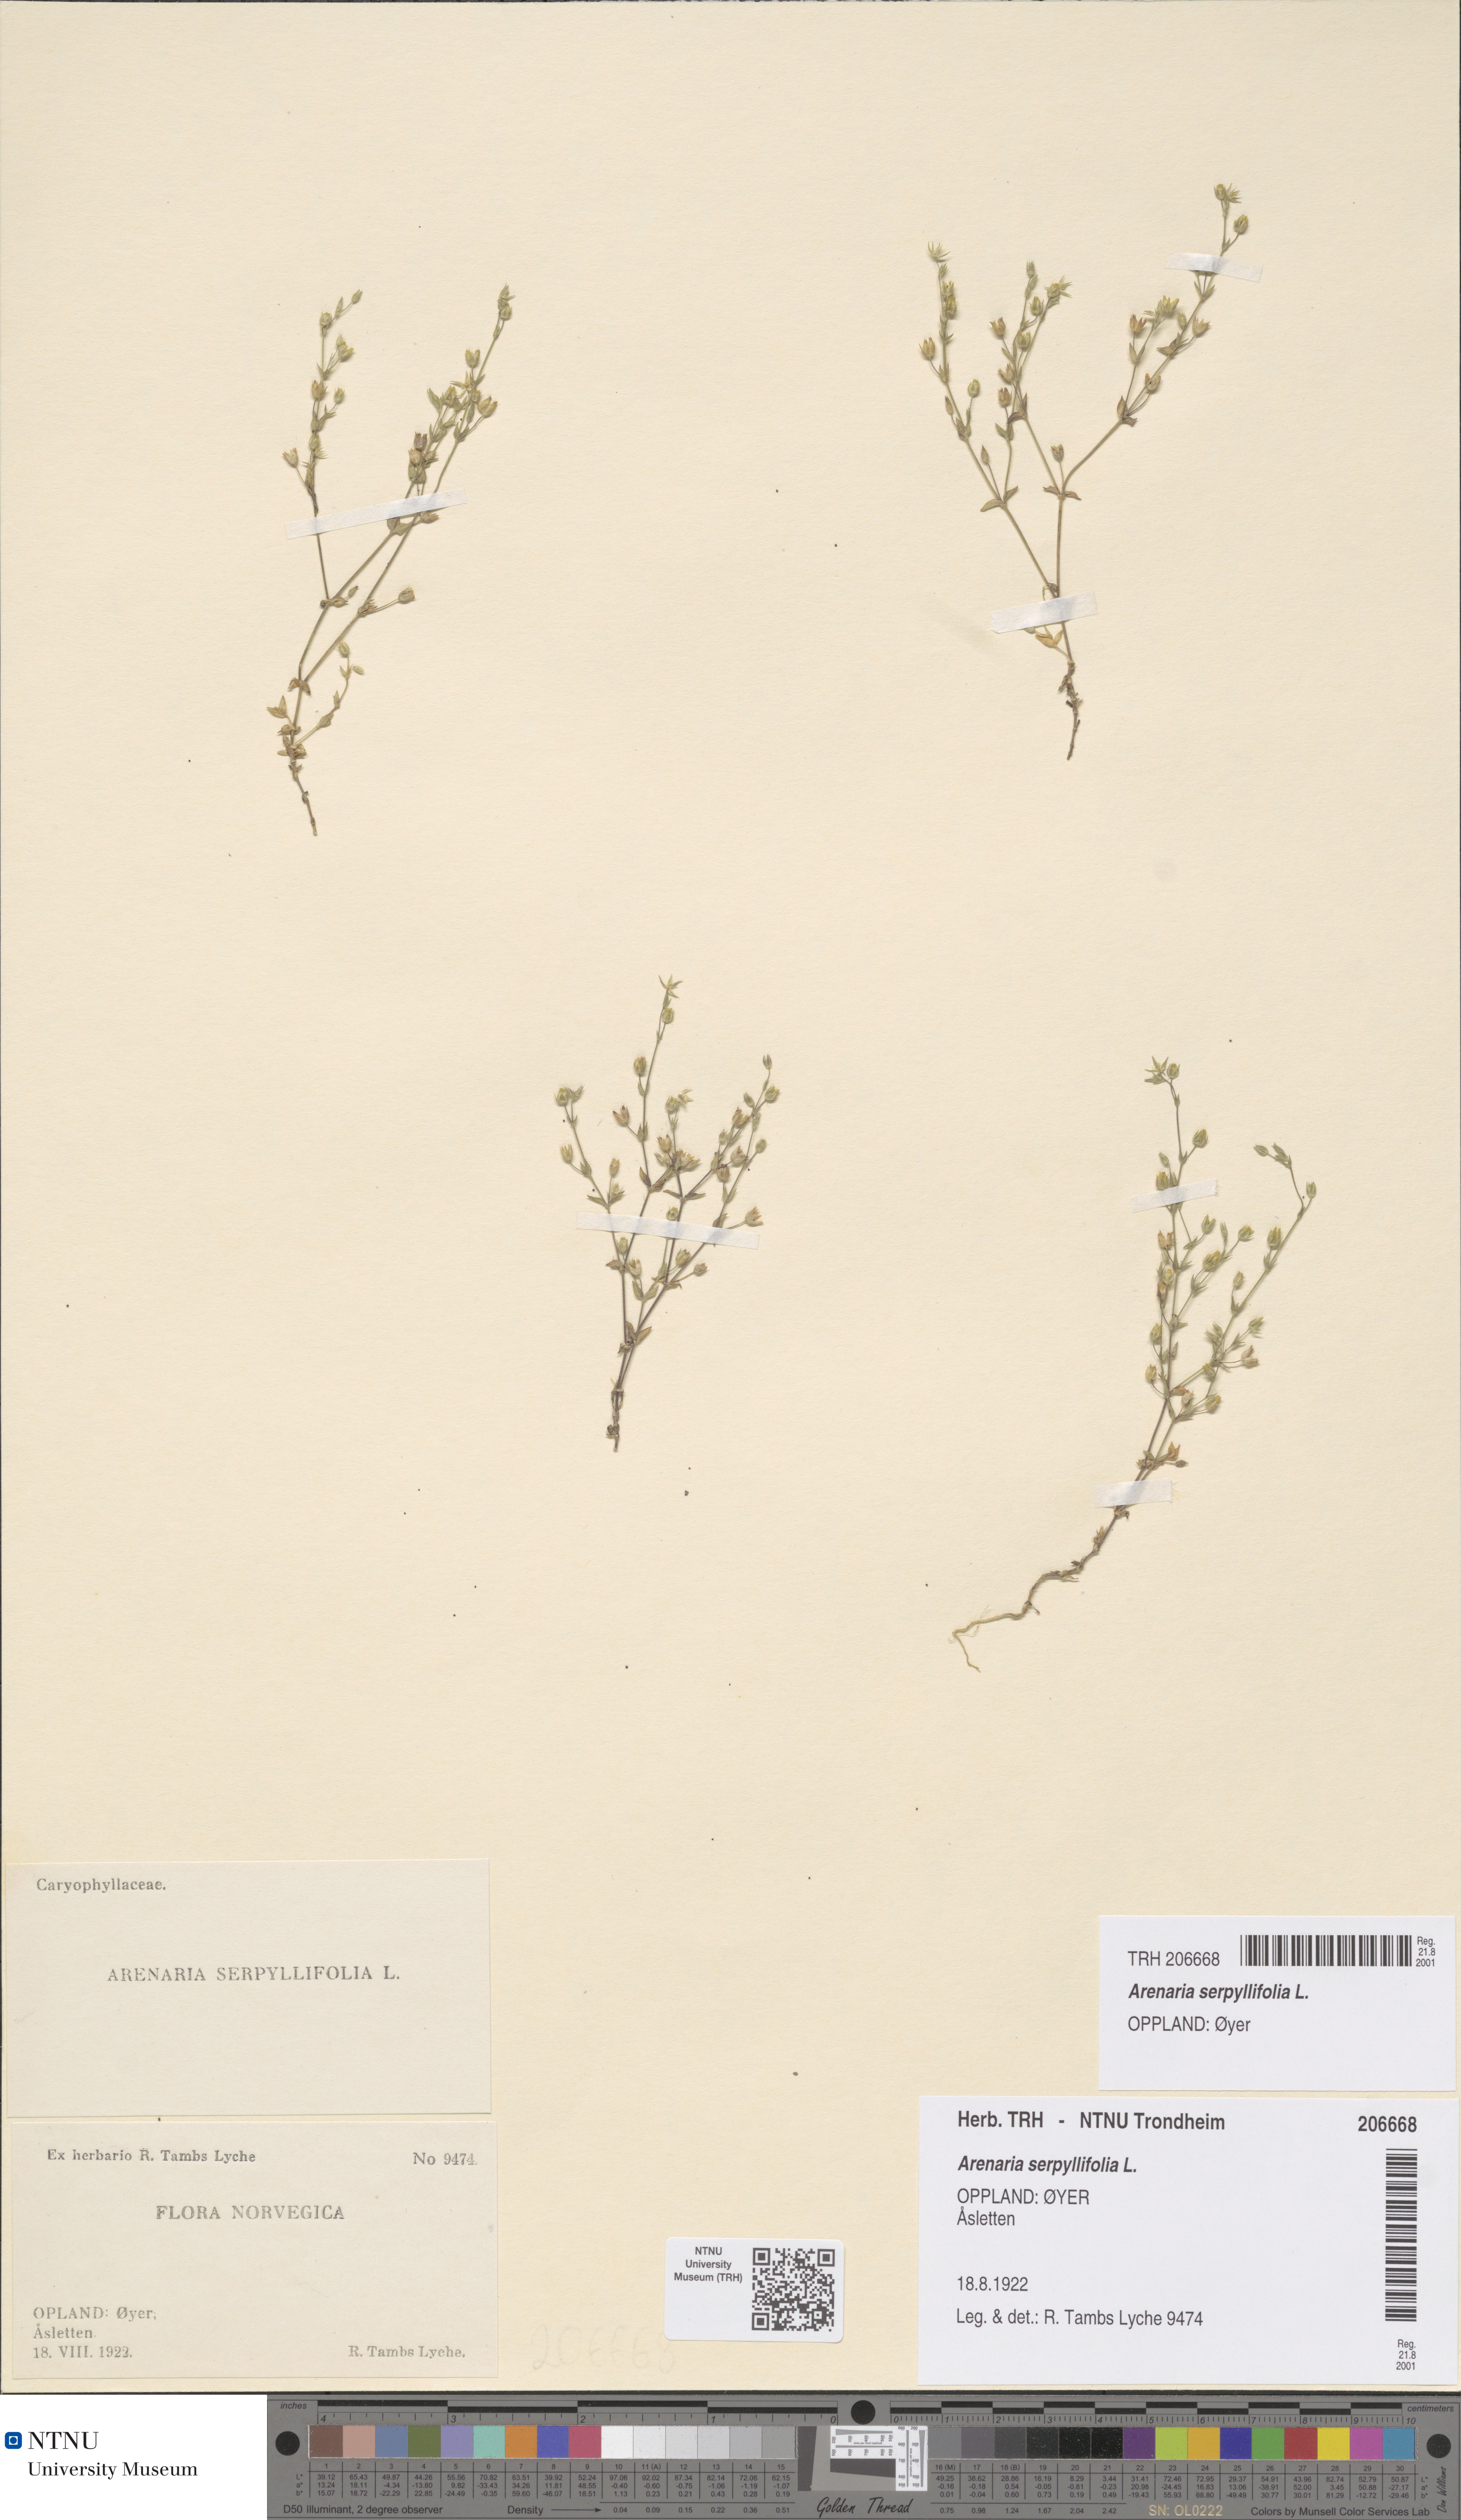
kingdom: Plantae
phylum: Tracheophyta
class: Magnoliopsida
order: Caryophyllales
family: Caryophyllaceae
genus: Arenaria
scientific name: Arenaria serpyllifolia
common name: Thyme-leaved sandwort
